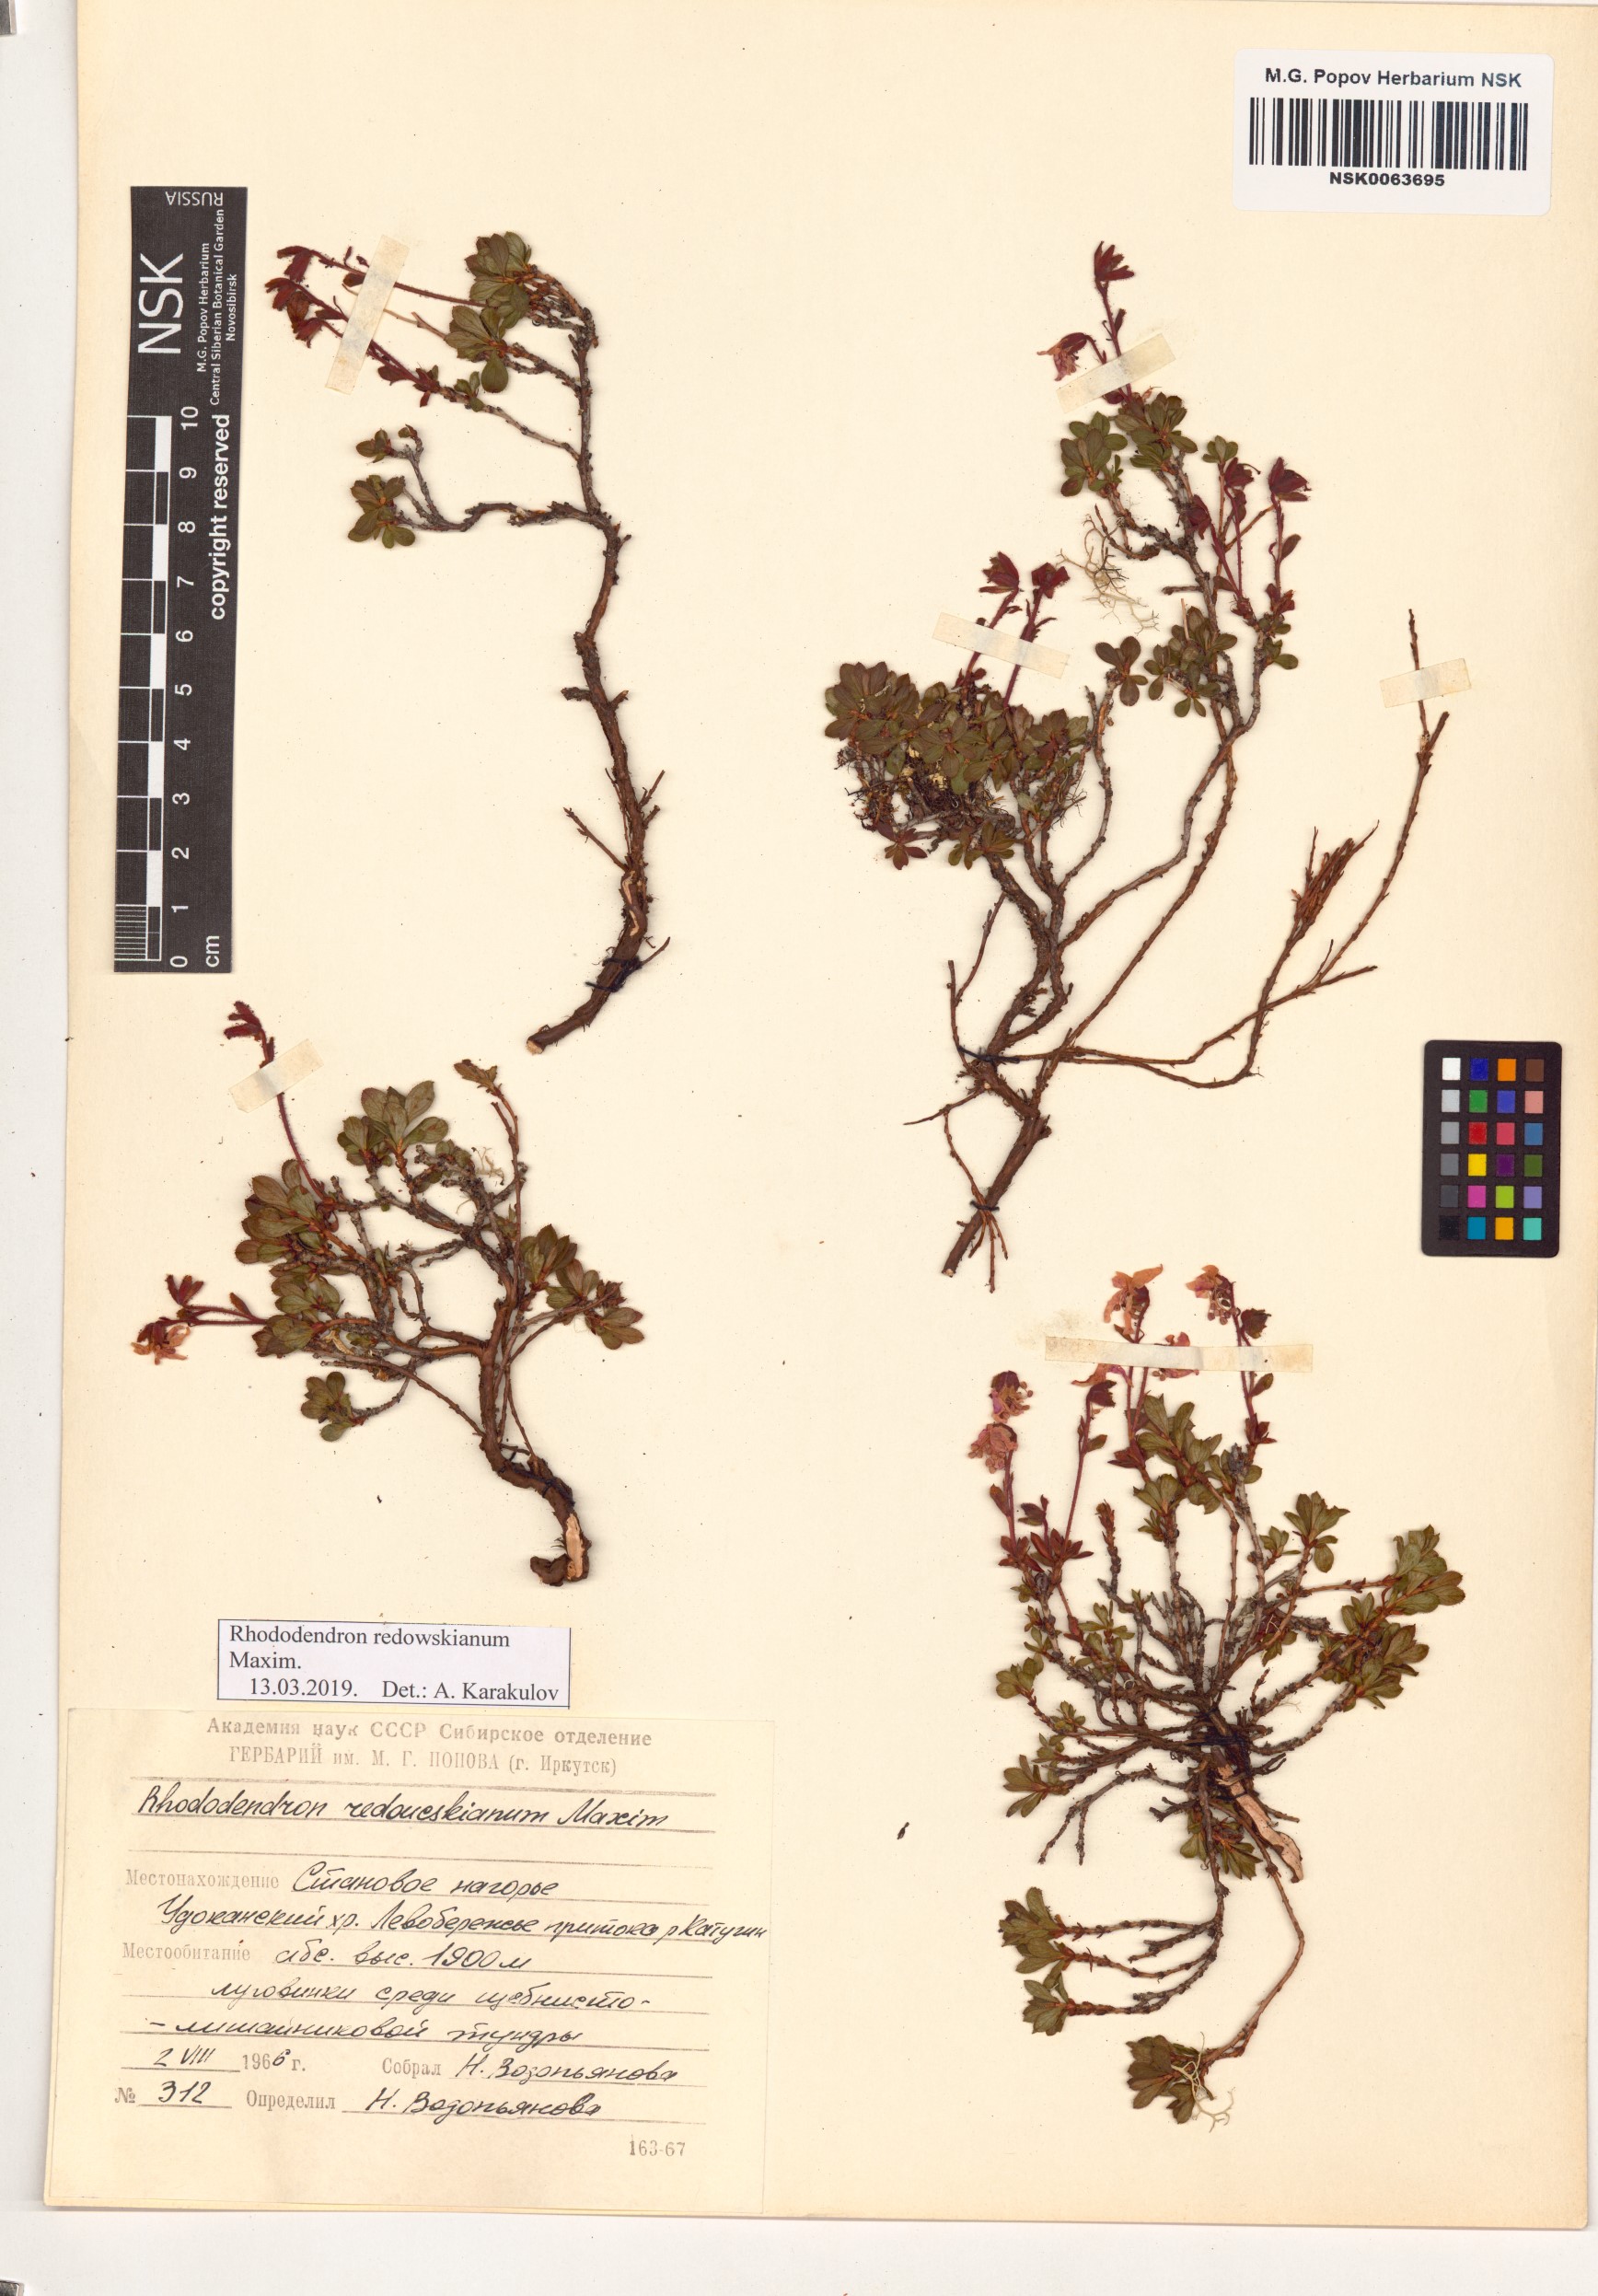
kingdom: Plantae
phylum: Tracheophyta
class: Magnoliopsida
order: Ericales
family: Ericaceae
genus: Rhododendron
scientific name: Rhododendron redowskianum
